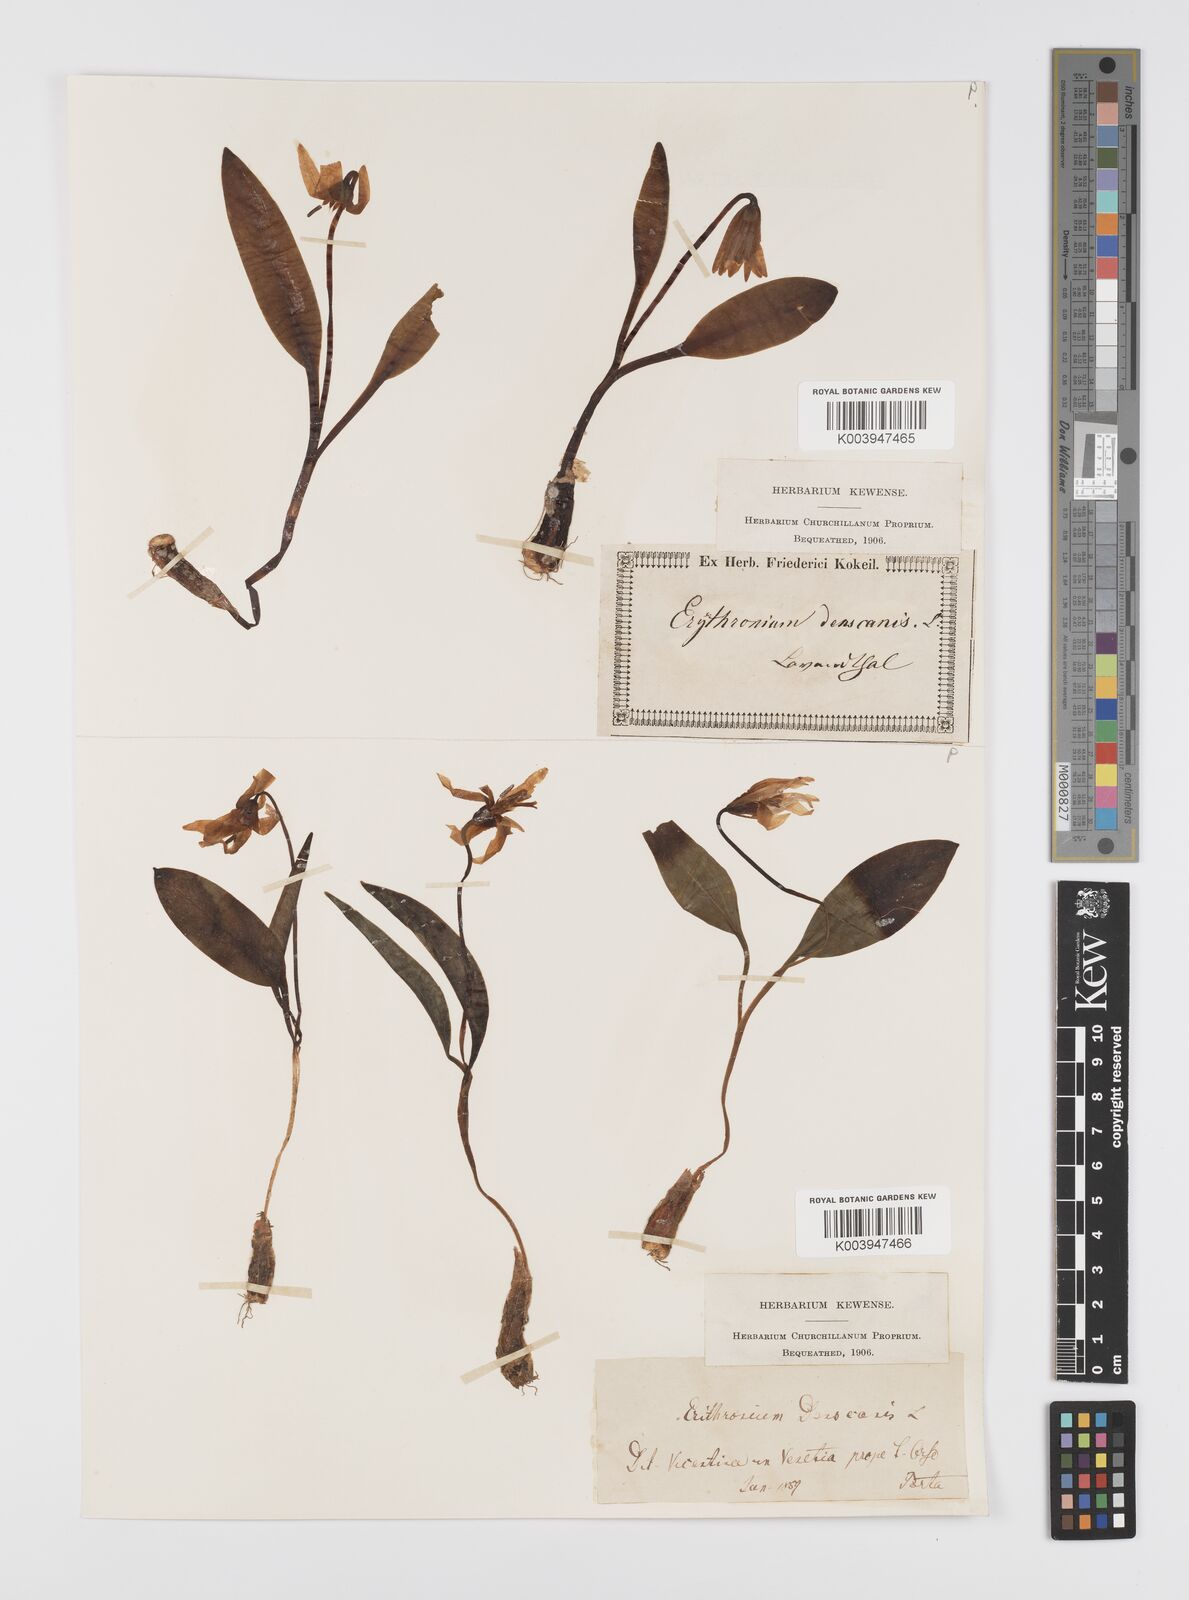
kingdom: Plantae
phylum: Tracheophyta
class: Liliopsida
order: Liliales
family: Liliaceae
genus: Erythronium
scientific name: Erythronium dens-canis
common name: Dog's-tooth-violet
